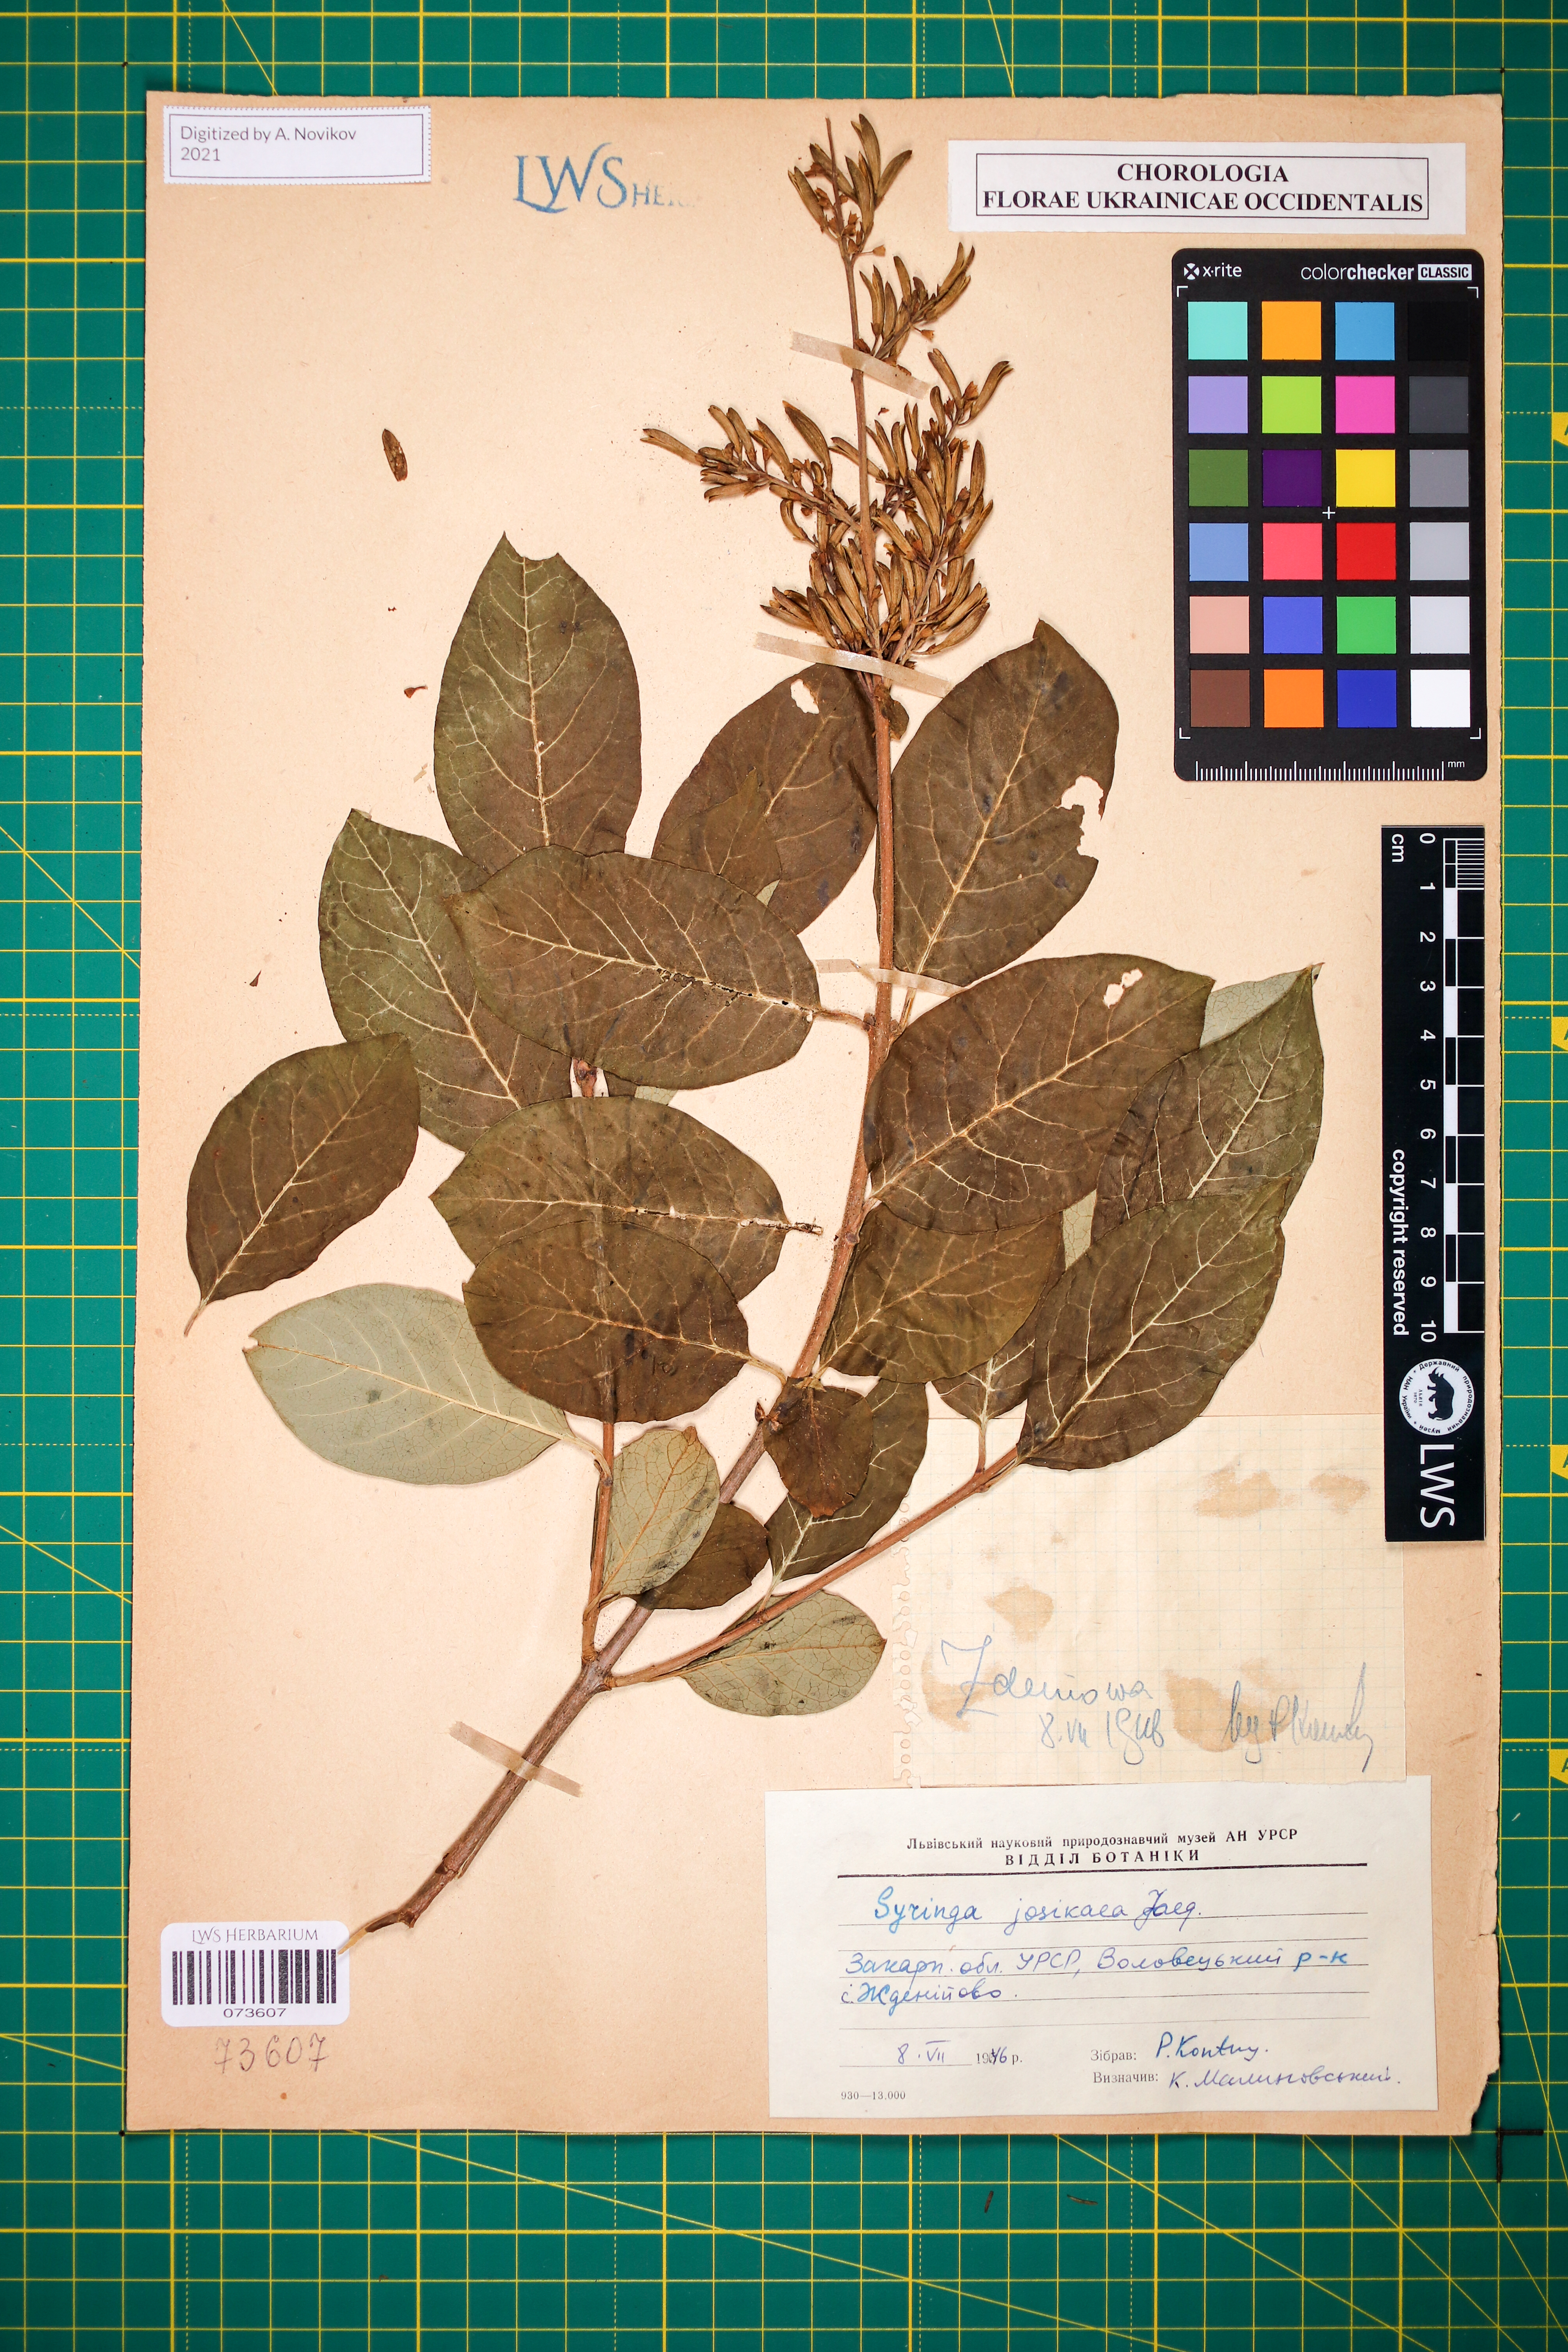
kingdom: Plantae
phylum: Tracheophyta
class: Magnoliopsida
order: Lamiales
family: Oleaceae
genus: Syringa
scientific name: Syringa josikaea
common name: Hungarian lilac
